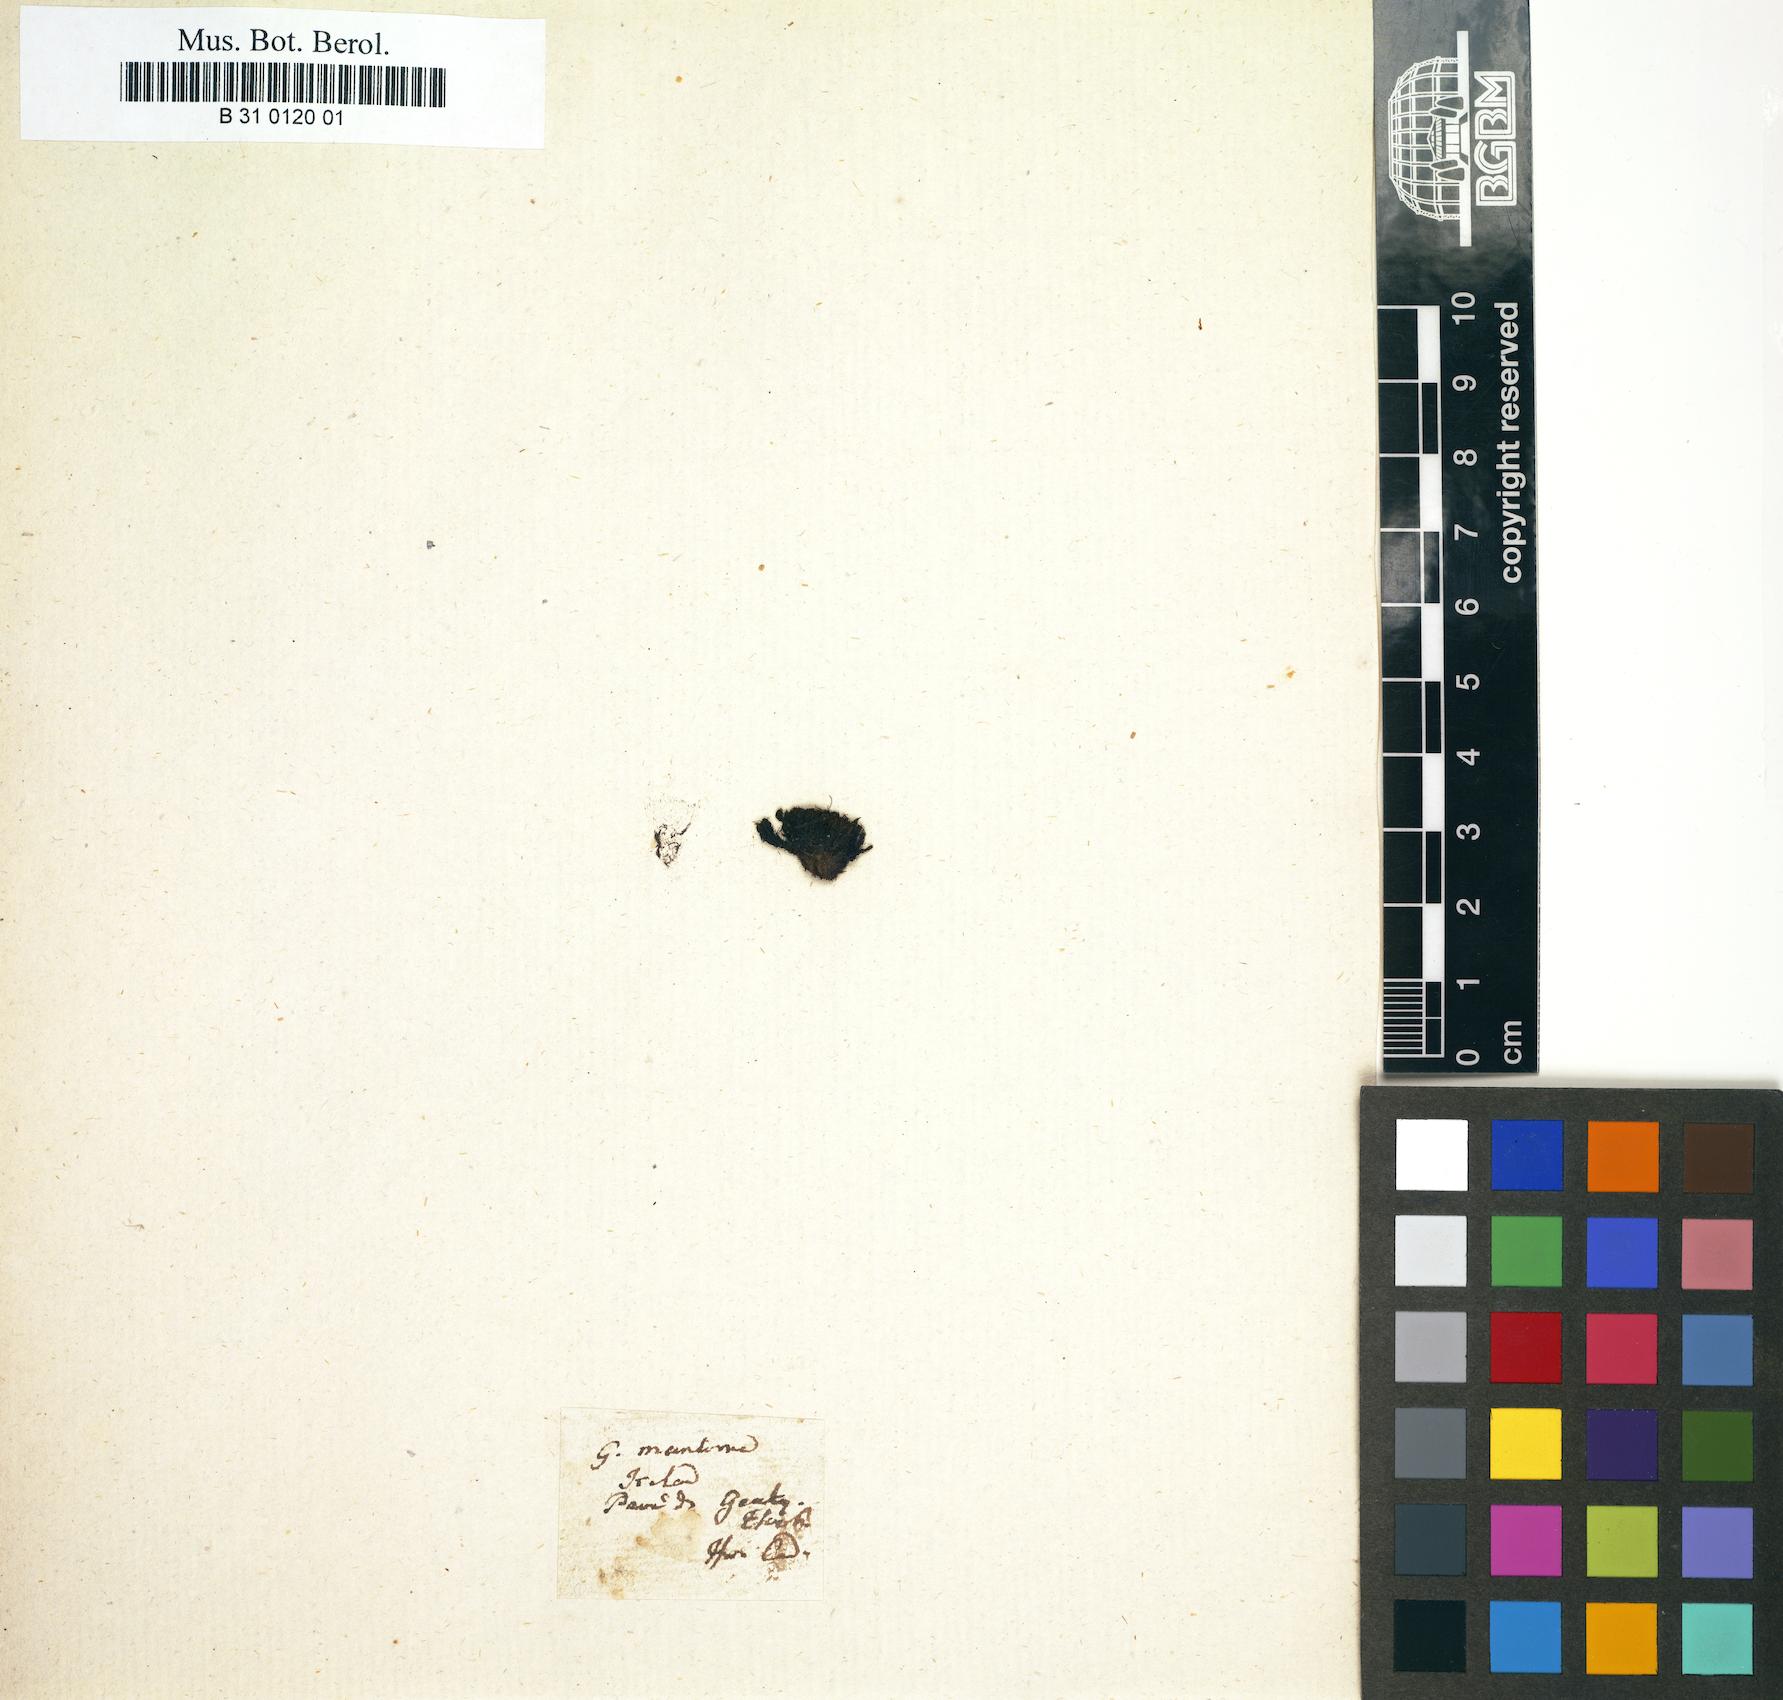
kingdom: Plantae
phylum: Bryophyta
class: Bryopsida
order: Grimmiales
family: Grimmiaceae
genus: Schistidium
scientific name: Schistidium maritimum
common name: Seaside bloom moss
